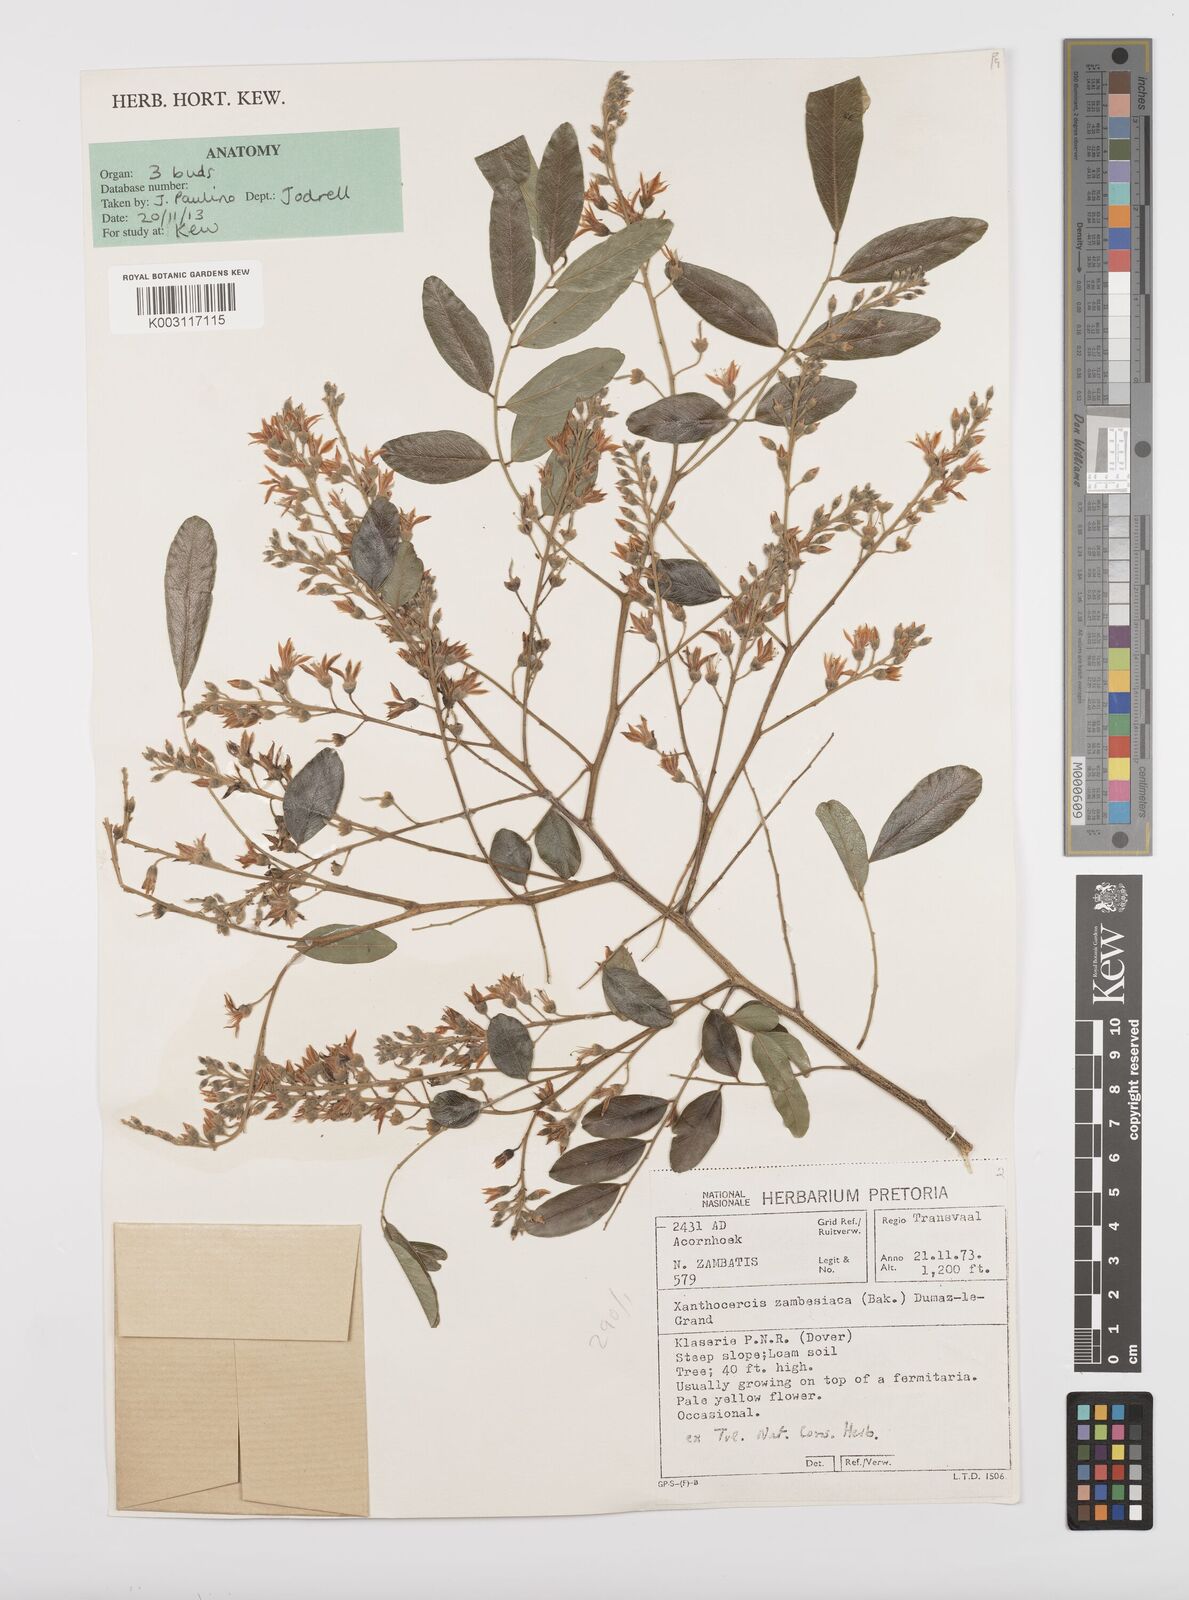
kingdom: Plantae
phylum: Tracheophyta
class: Magnoliopsida
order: Fabales
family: Fabaceae
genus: Xanthocercis
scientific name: Xanthocercis zambesiaca
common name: Nyala-tree
